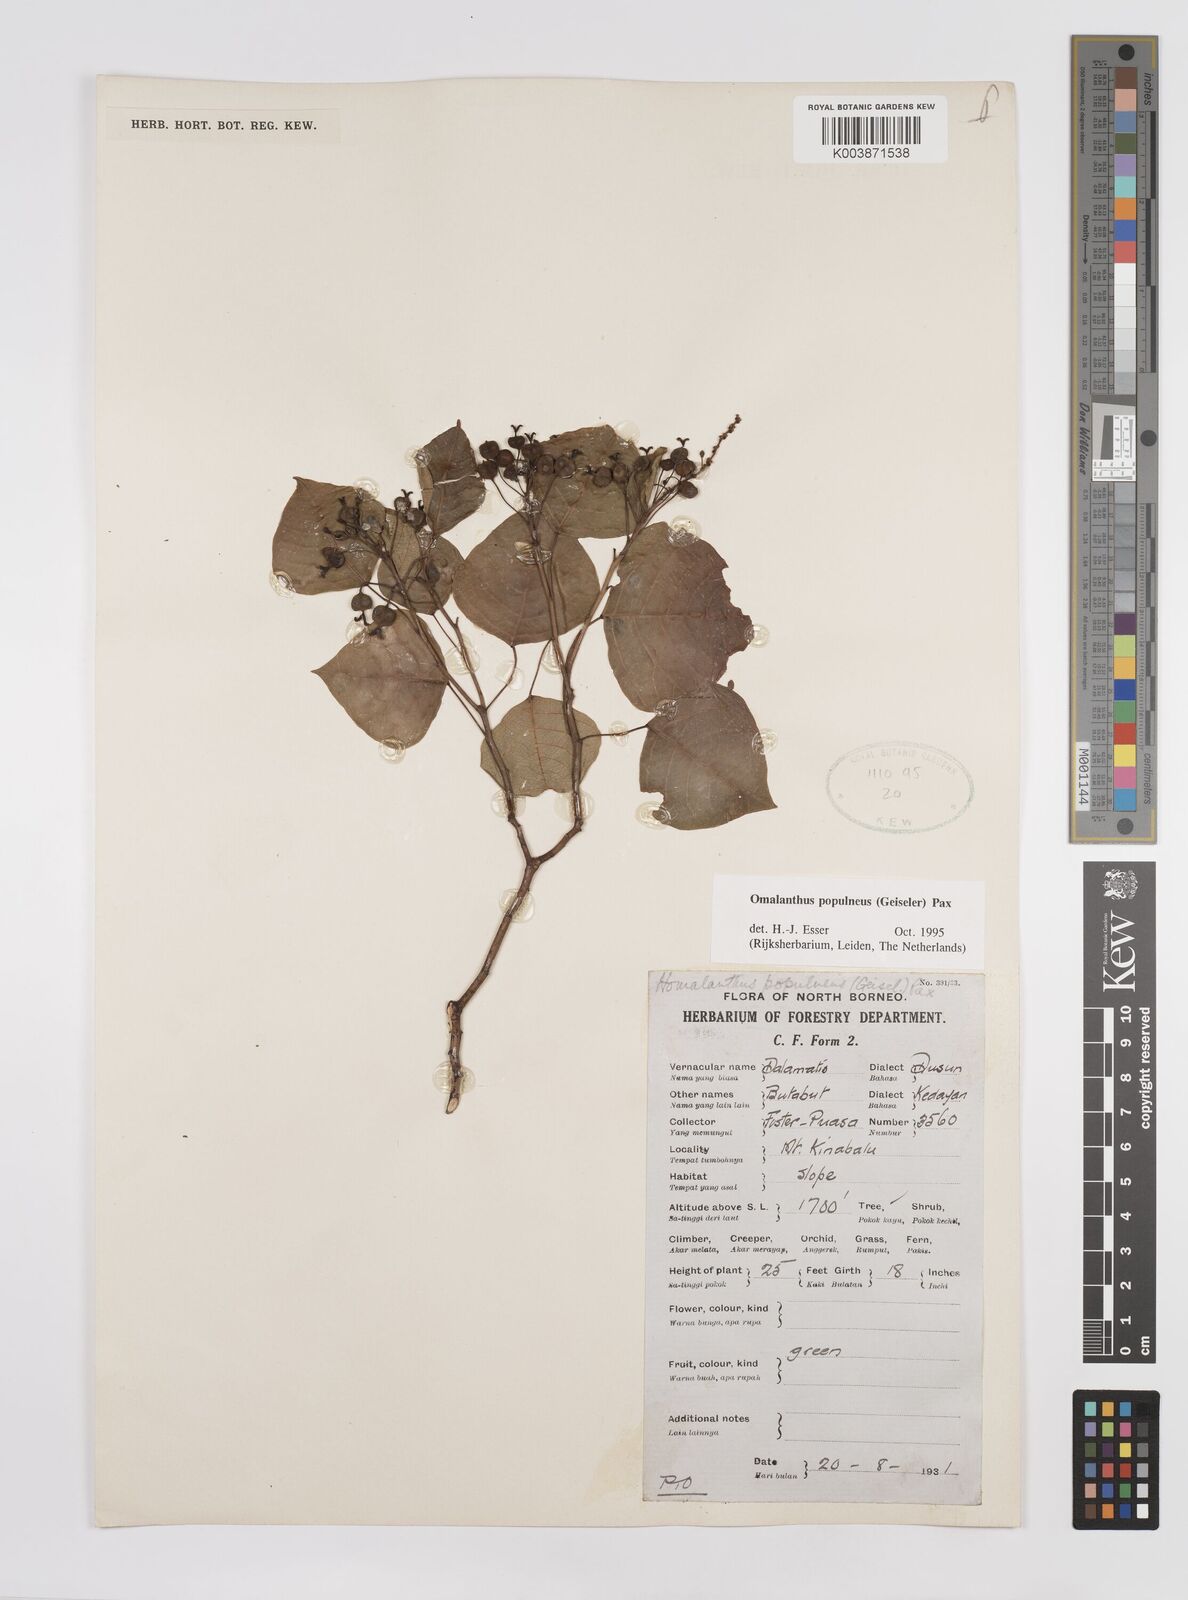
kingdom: Plantae
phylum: Tracheophyta
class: Magnoliopsida
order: Malpighiales
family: Euphorbiaceae
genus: Homalanthus
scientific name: Homalanthus populneus
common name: Spurge
